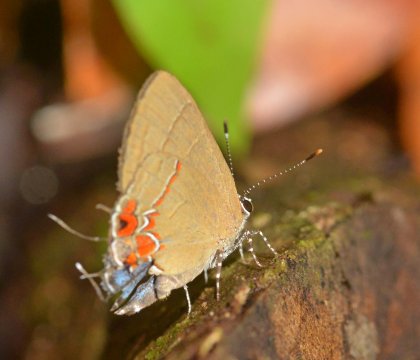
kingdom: Animalia
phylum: Arthropoda
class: Insecta
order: Lepidoptera
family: Lycaenidae
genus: Calycopis
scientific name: Calycopis isobeon
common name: Dusky-blue Groundstreak
